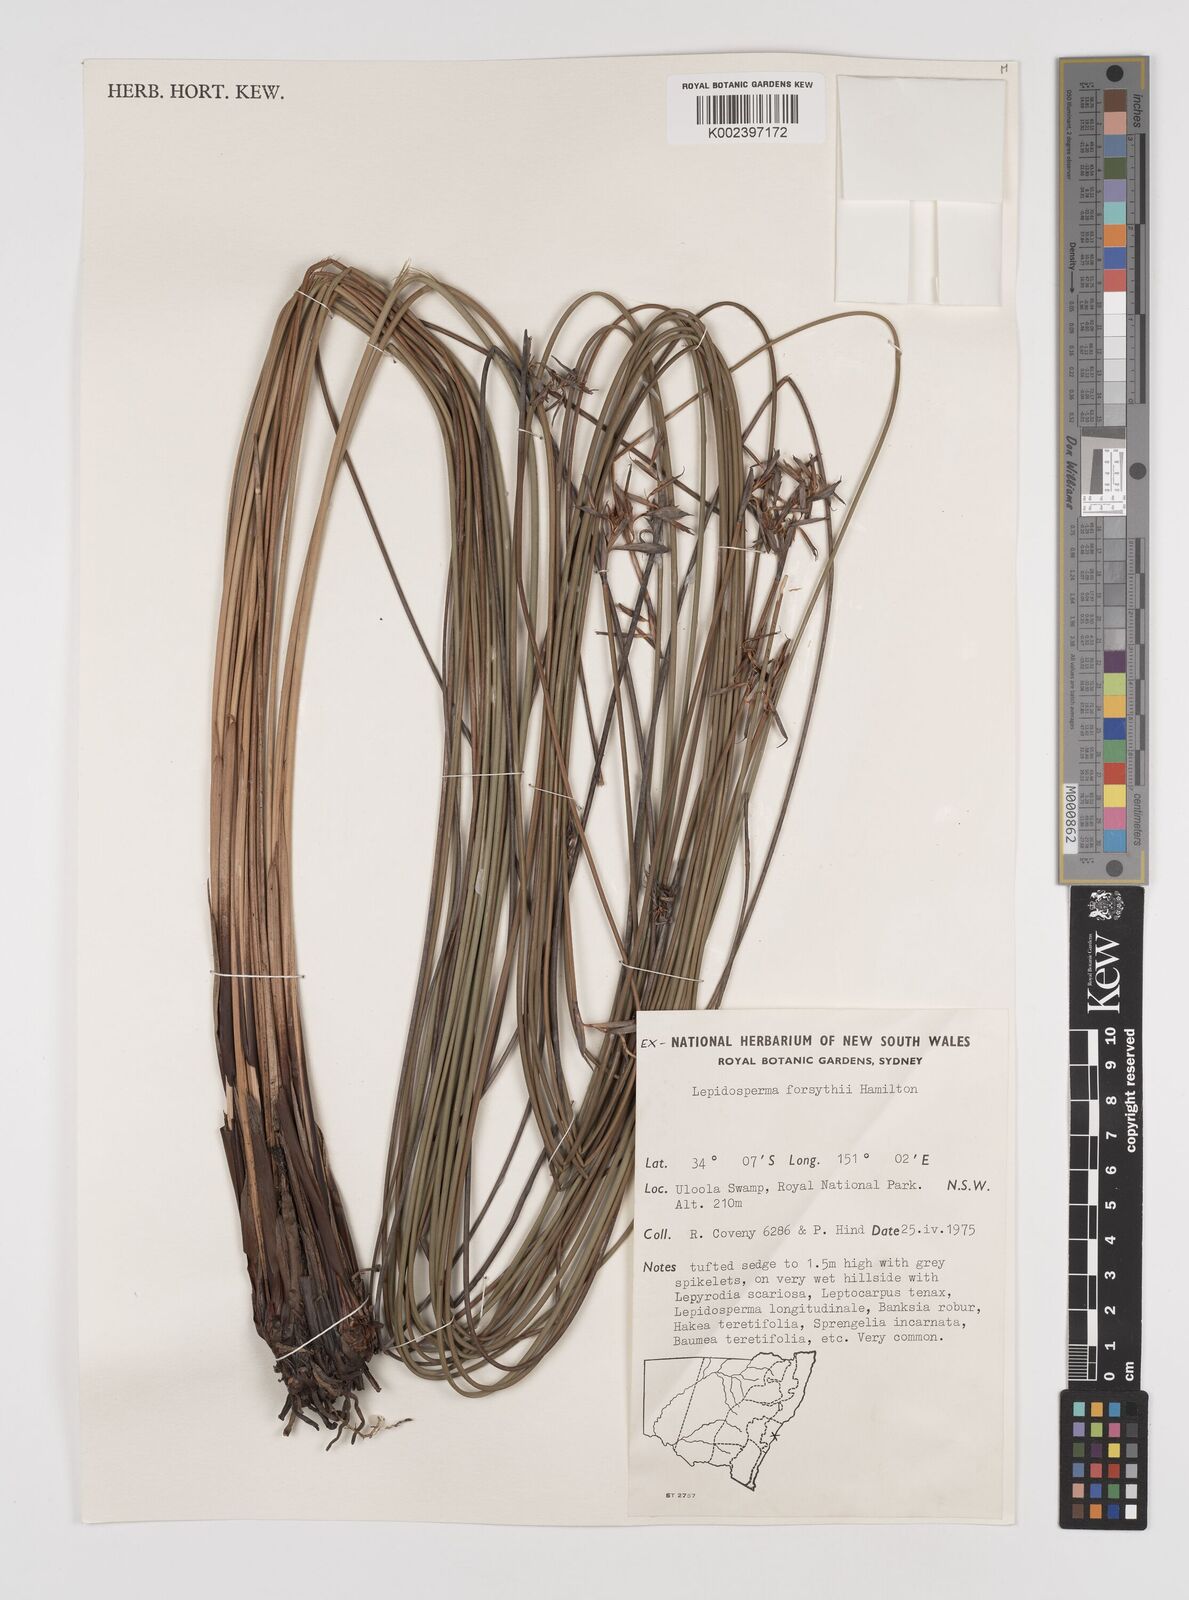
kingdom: Plantae
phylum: Tracheophyta
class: Liliopsida
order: Poales
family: Cyperaceae
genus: Lepidosperma
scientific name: Lepidosperma forsythii
